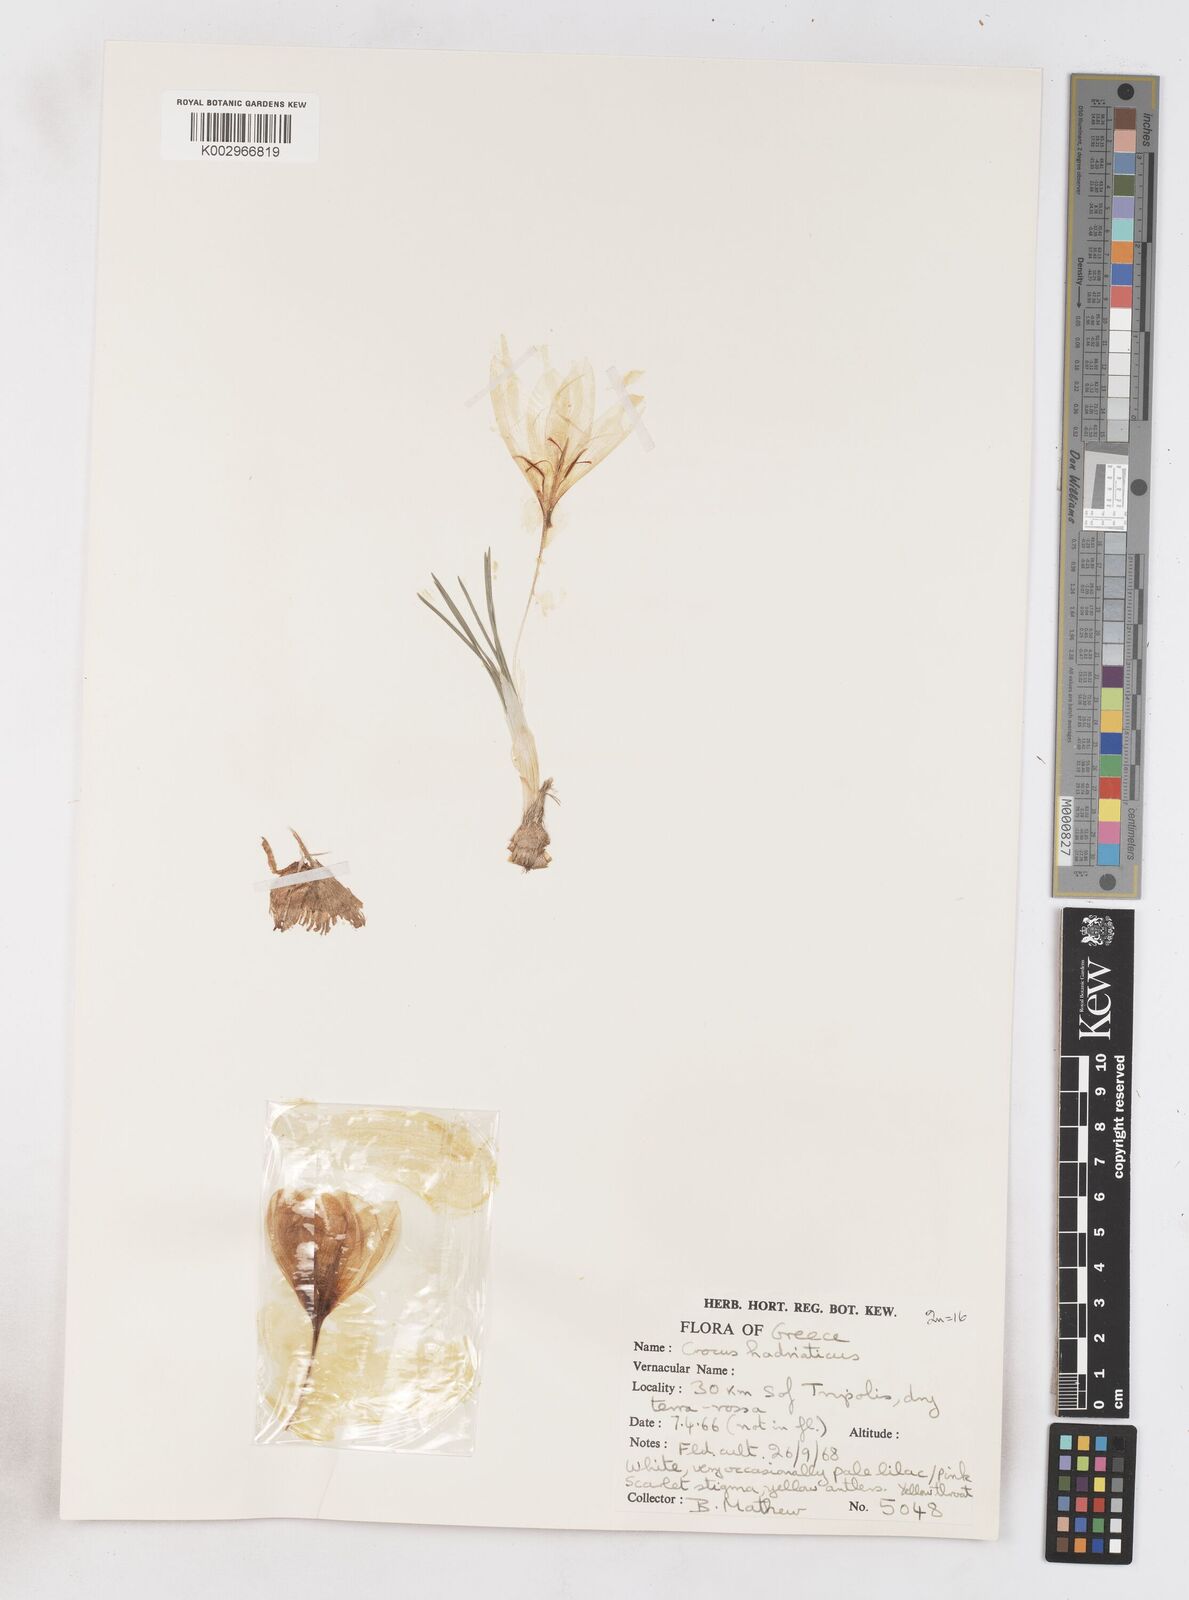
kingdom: Plantae
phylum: Tracheophyta
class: Liliopsida
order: Asparagales
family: Iridaceae
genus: Crocus
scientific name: Crocus hadriaticus
